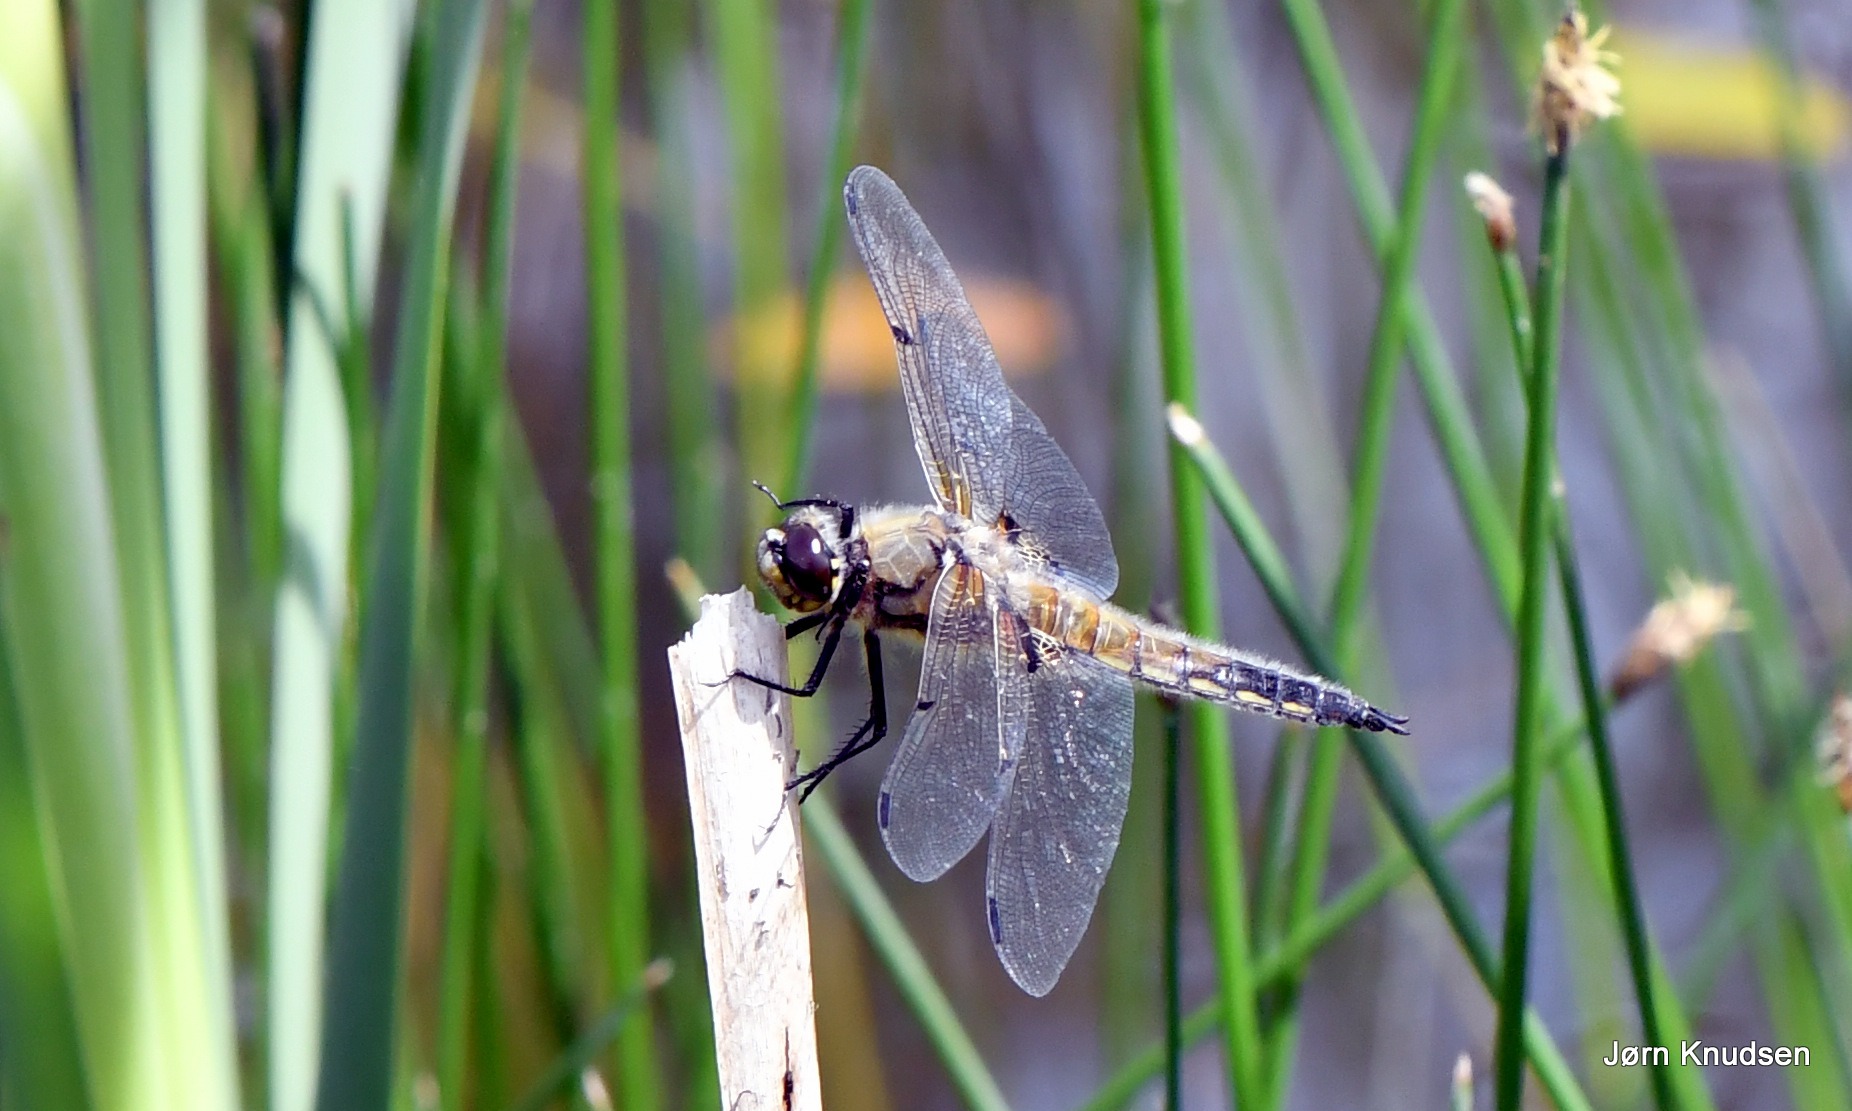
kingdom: Animalia
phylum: Arthropoda
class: Insecta
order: Odonata
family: Libellulidae
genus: Libellula
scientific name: Libellula quadrimaculata
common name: Fireplettet libel
